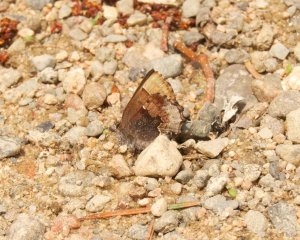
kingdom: Animalia
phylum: Arthropoda
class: Insecta
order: Lepidoptera
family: Lycaenidae
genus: Incisalia
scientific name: Incisalia henrici
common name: Henry's Elfin
